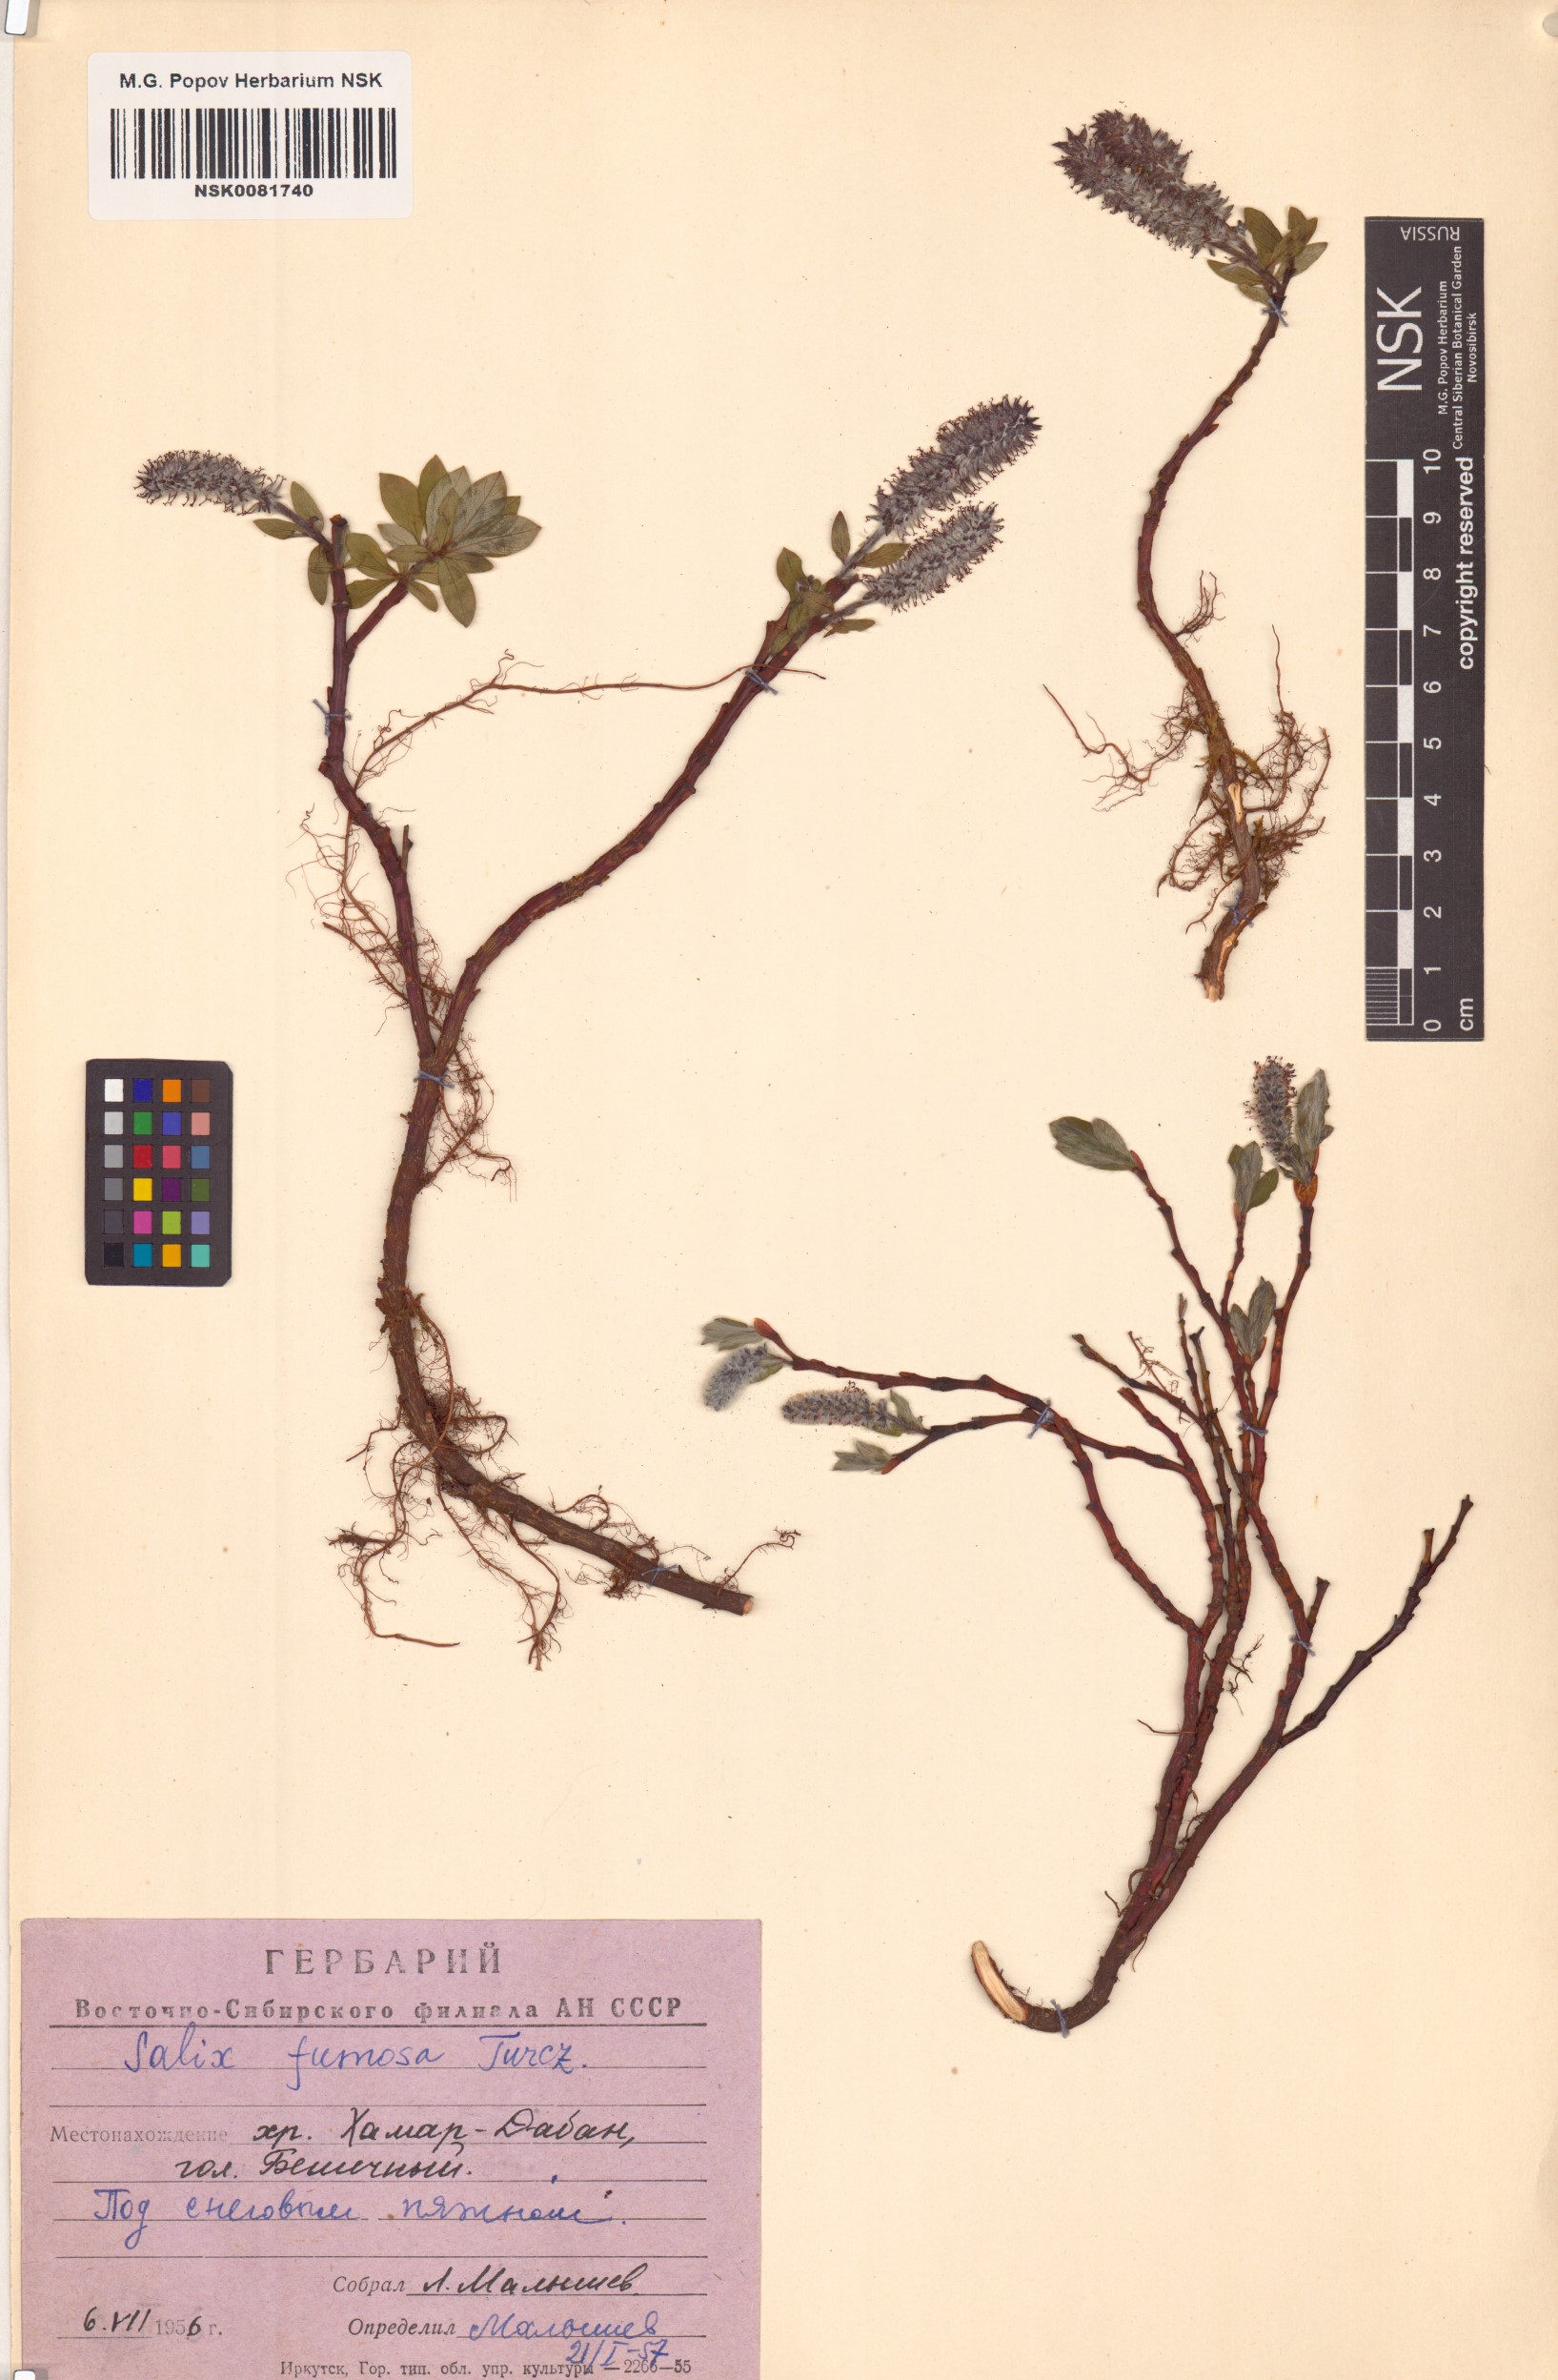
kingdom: Plantae
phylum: Tracheophyta
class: Magnoliopsida
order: Malpighiales
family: Salicaceae
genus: Salix
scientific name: Salix saxatilis
